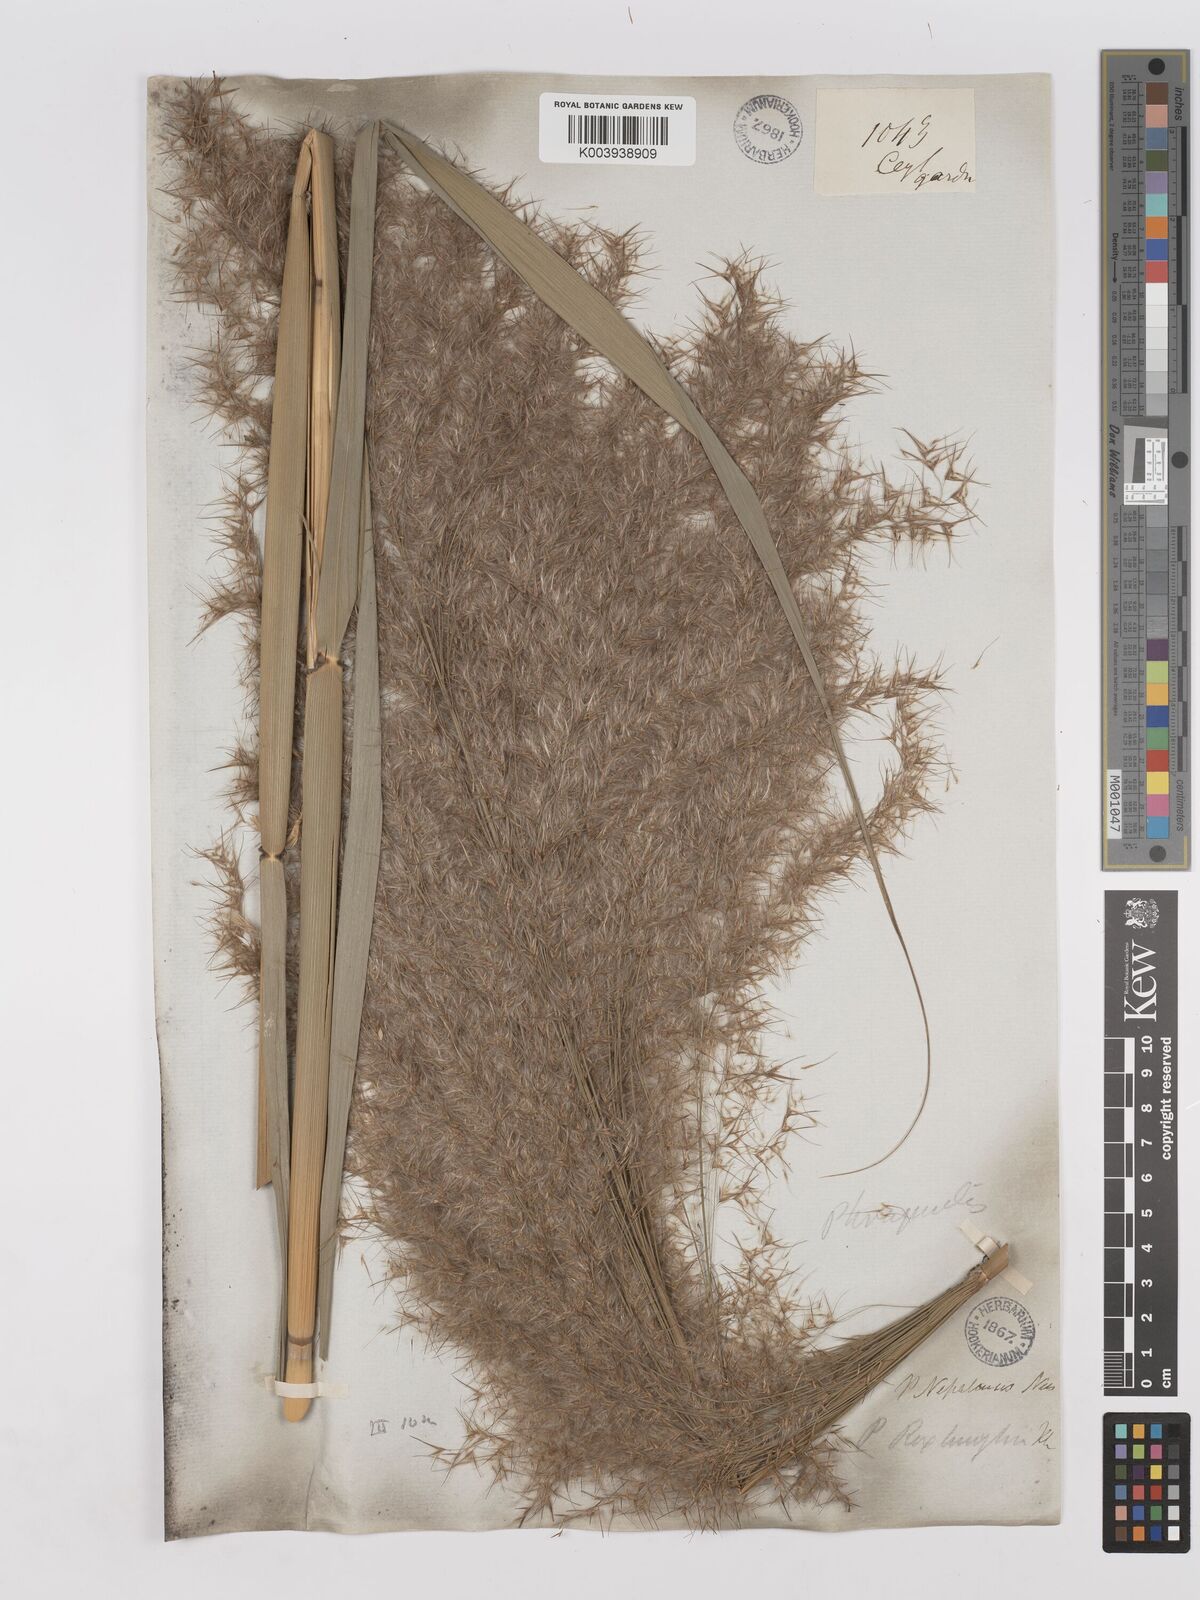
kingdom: Plantae
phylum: Tracheophyta
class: Liliopsida
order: Poales
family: Poaceae
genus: Phragmites
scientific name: Phragmites karka
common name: Tropical reed
